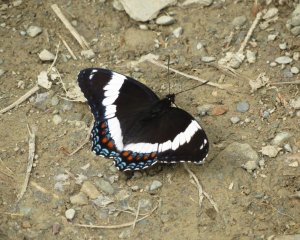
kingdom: Animalia
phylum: Arthropoda
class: Insecta
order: Lepidoptera
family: Nymphalidae
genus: Limenitis
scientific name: Limenitis arthemis
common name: Red-spotted Admiral
